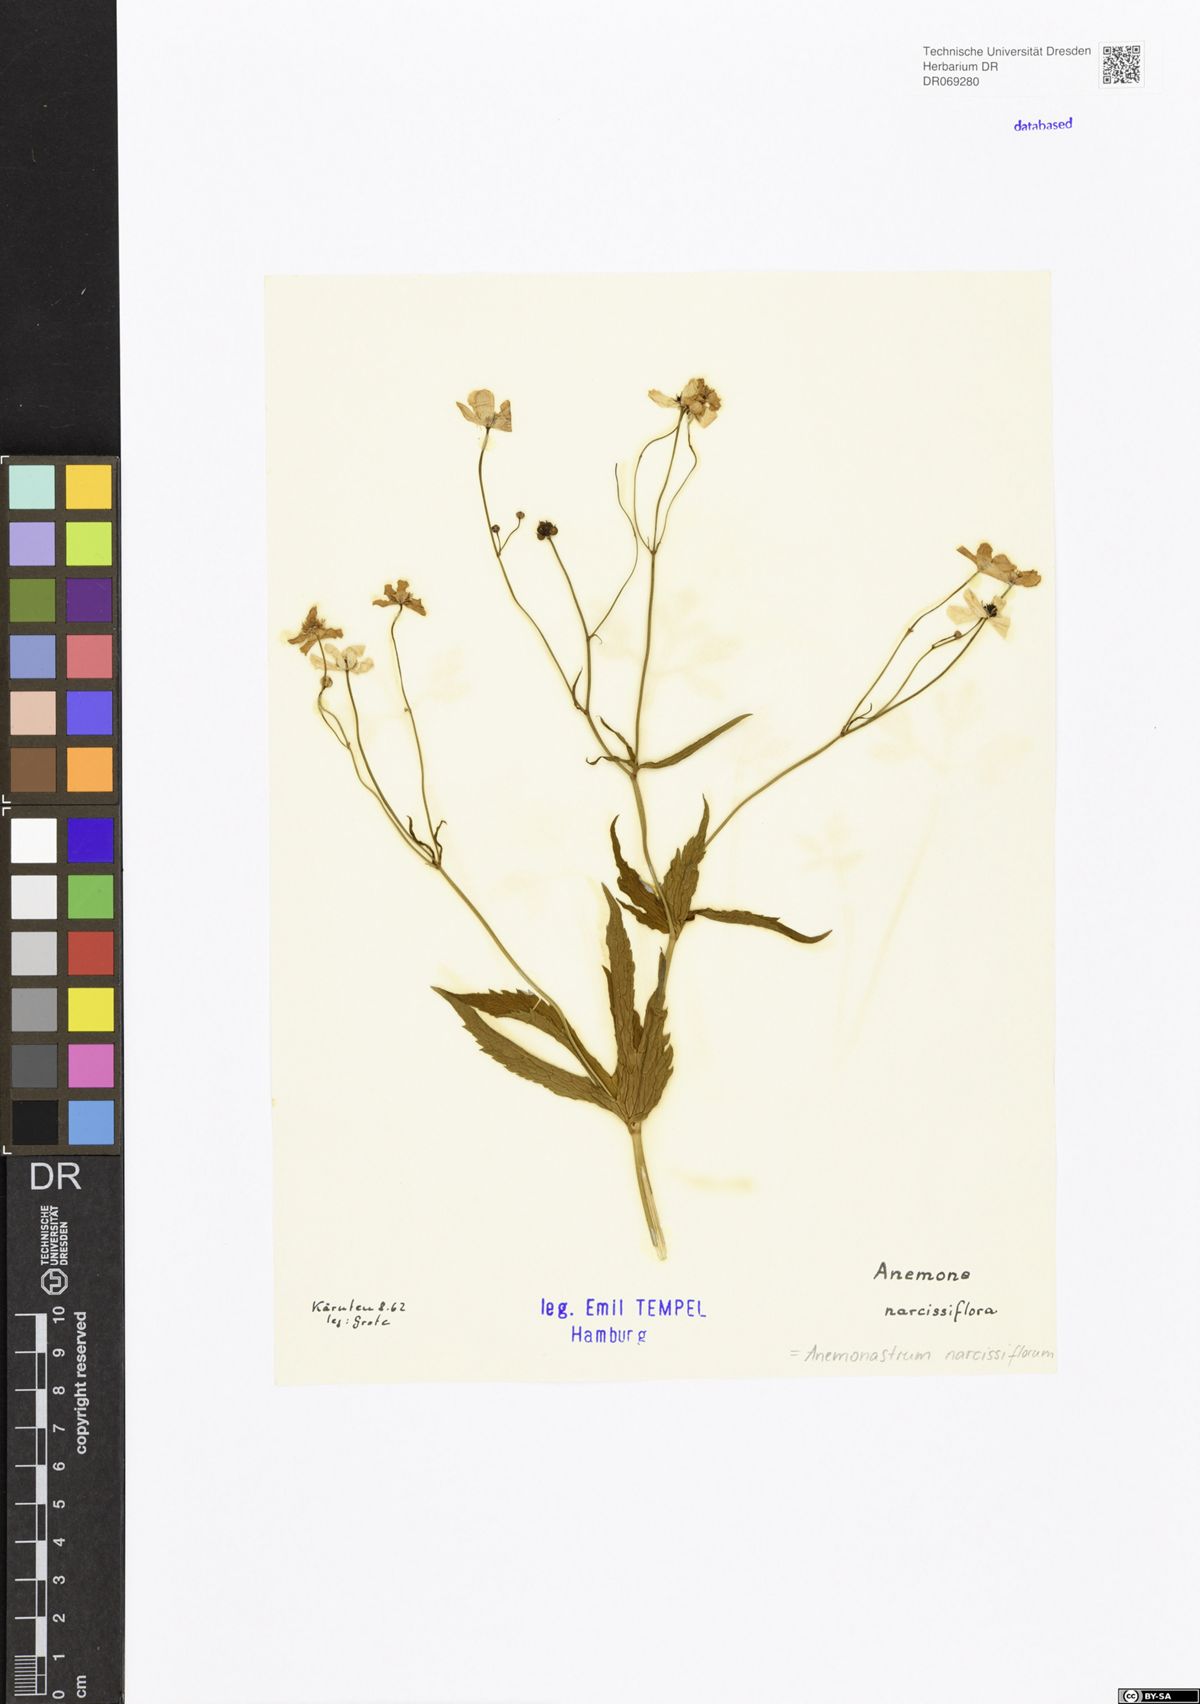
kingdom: Plantae
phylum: Tracheophyta
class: Magnoliopsida
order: Ranunculales
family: Ranunculaceae
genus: Anemonastrum
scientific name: Anemonastrum narcissiflorum
